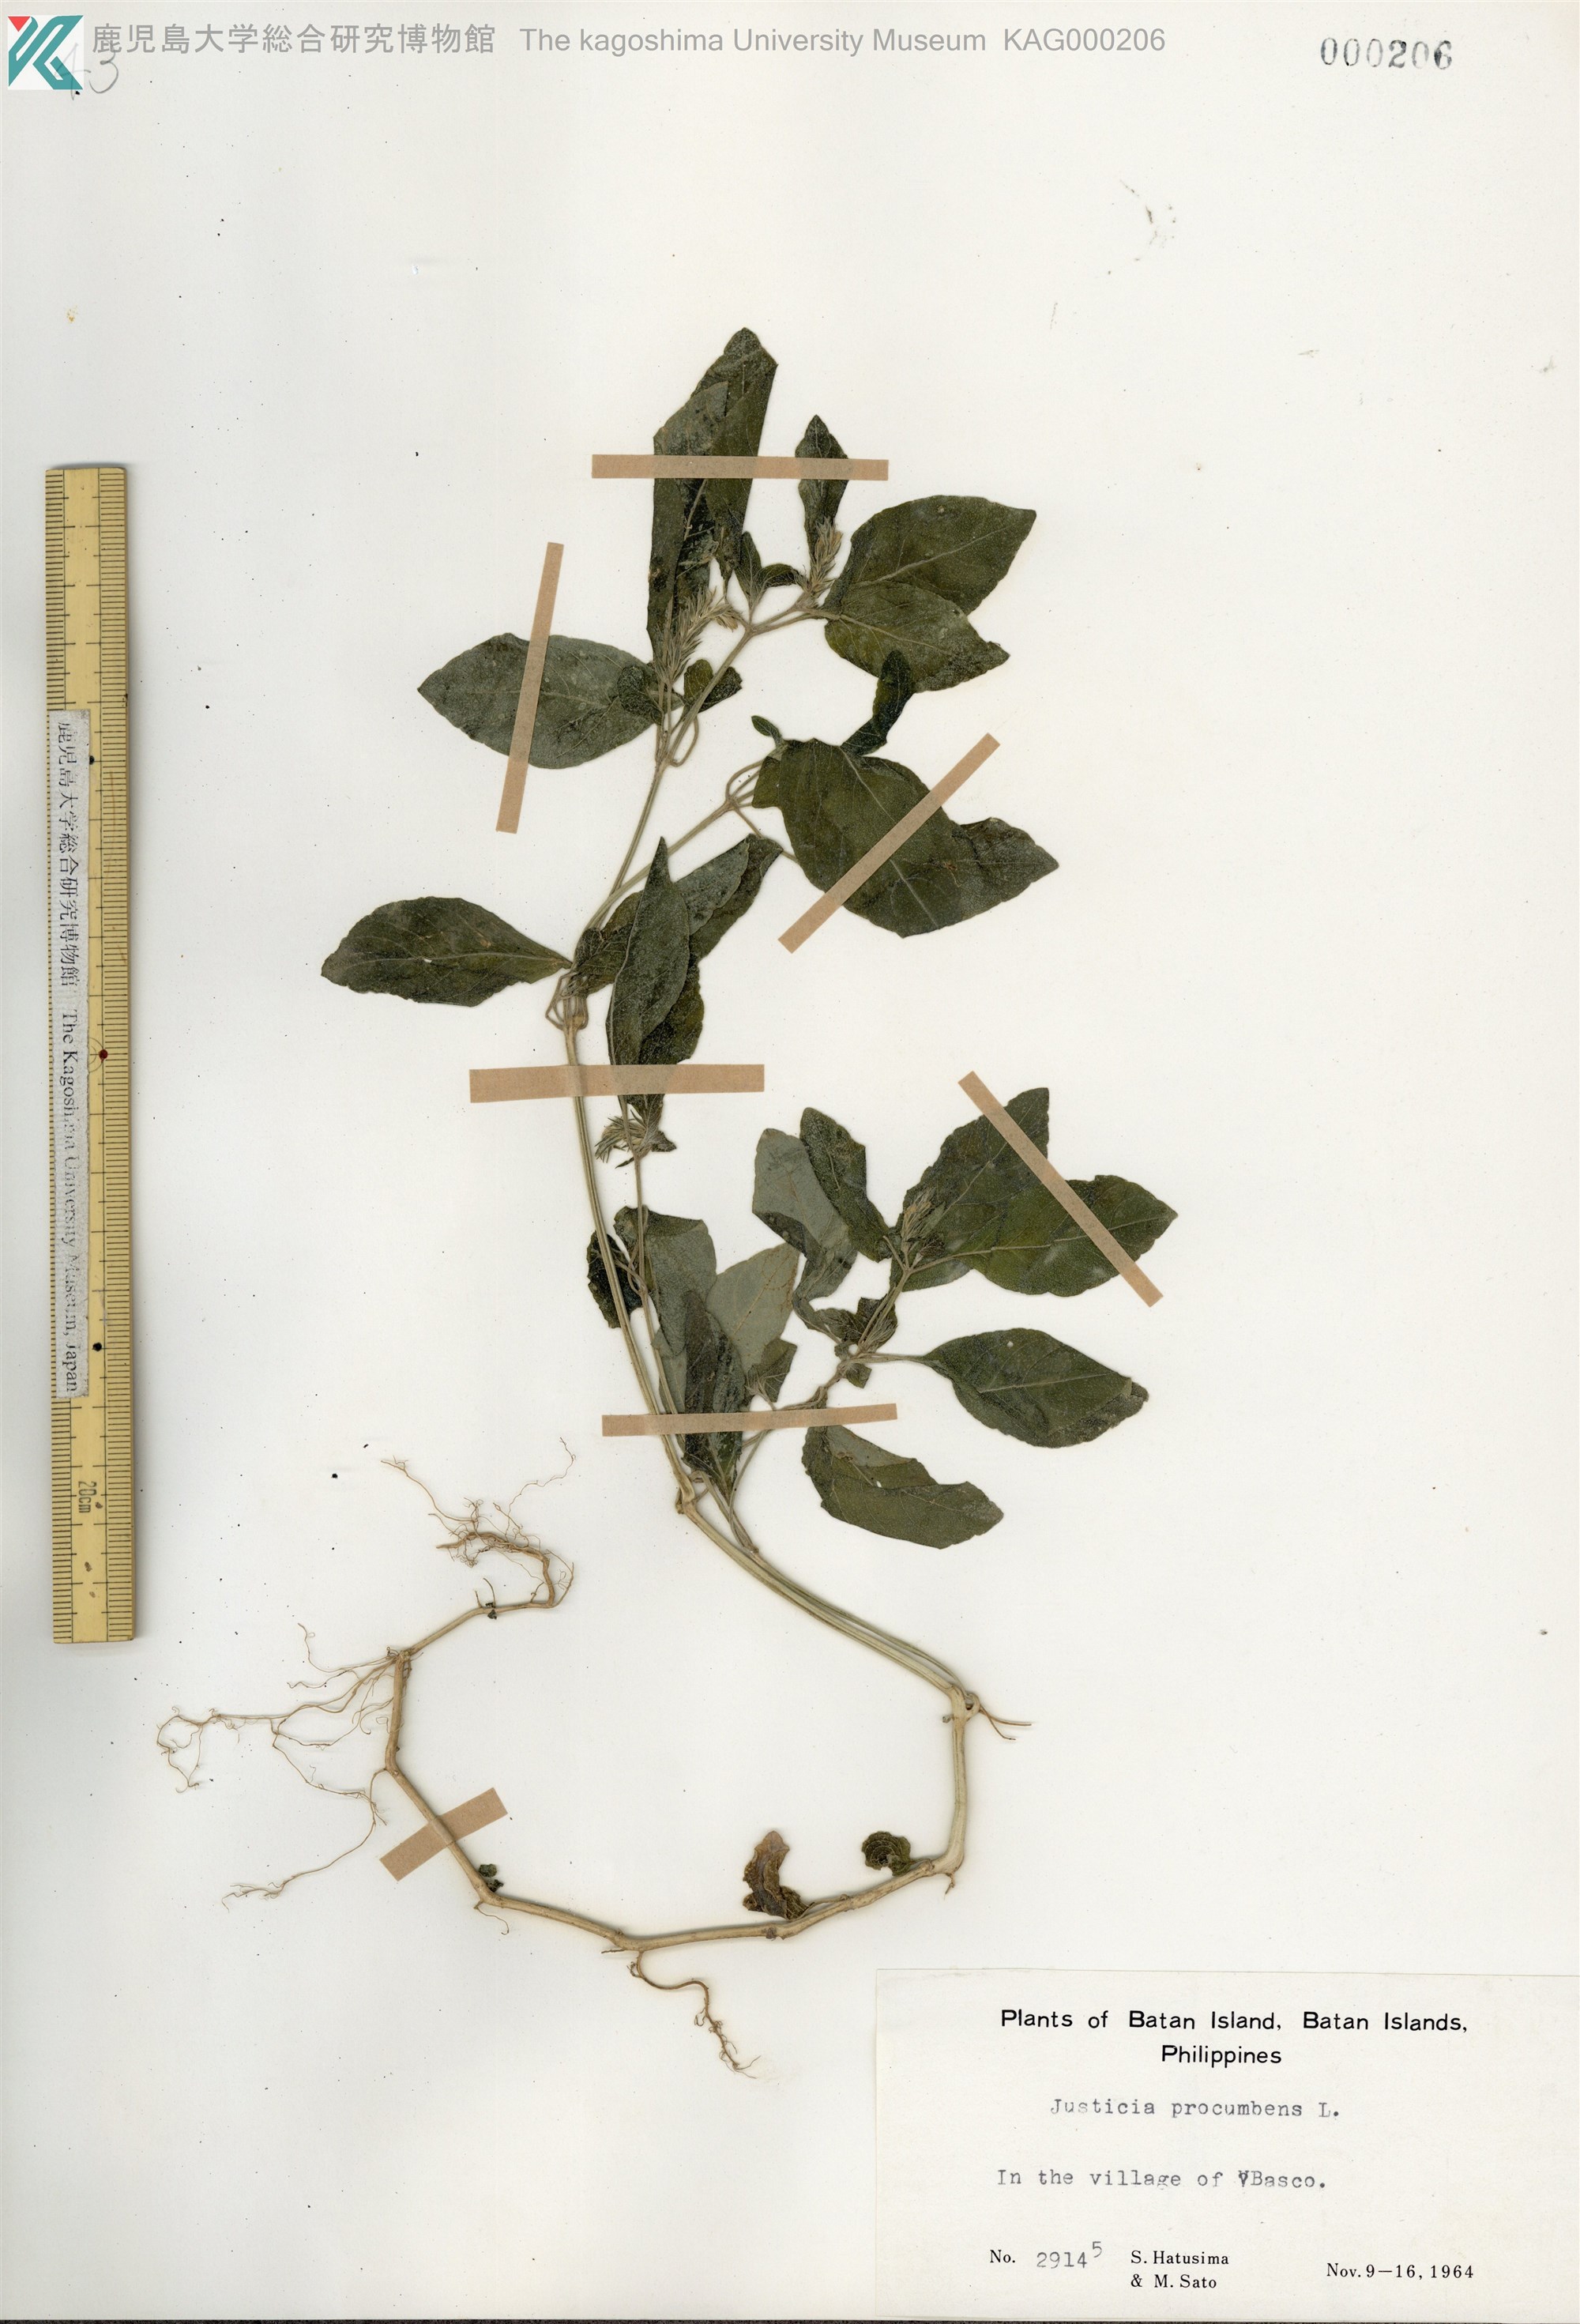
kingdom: Plantae
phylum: Tracheophyta
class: Magnoliopsida
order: Lamiales
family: Acanthaceae
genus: Rostellularia
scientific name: Rostellularia procumbens
